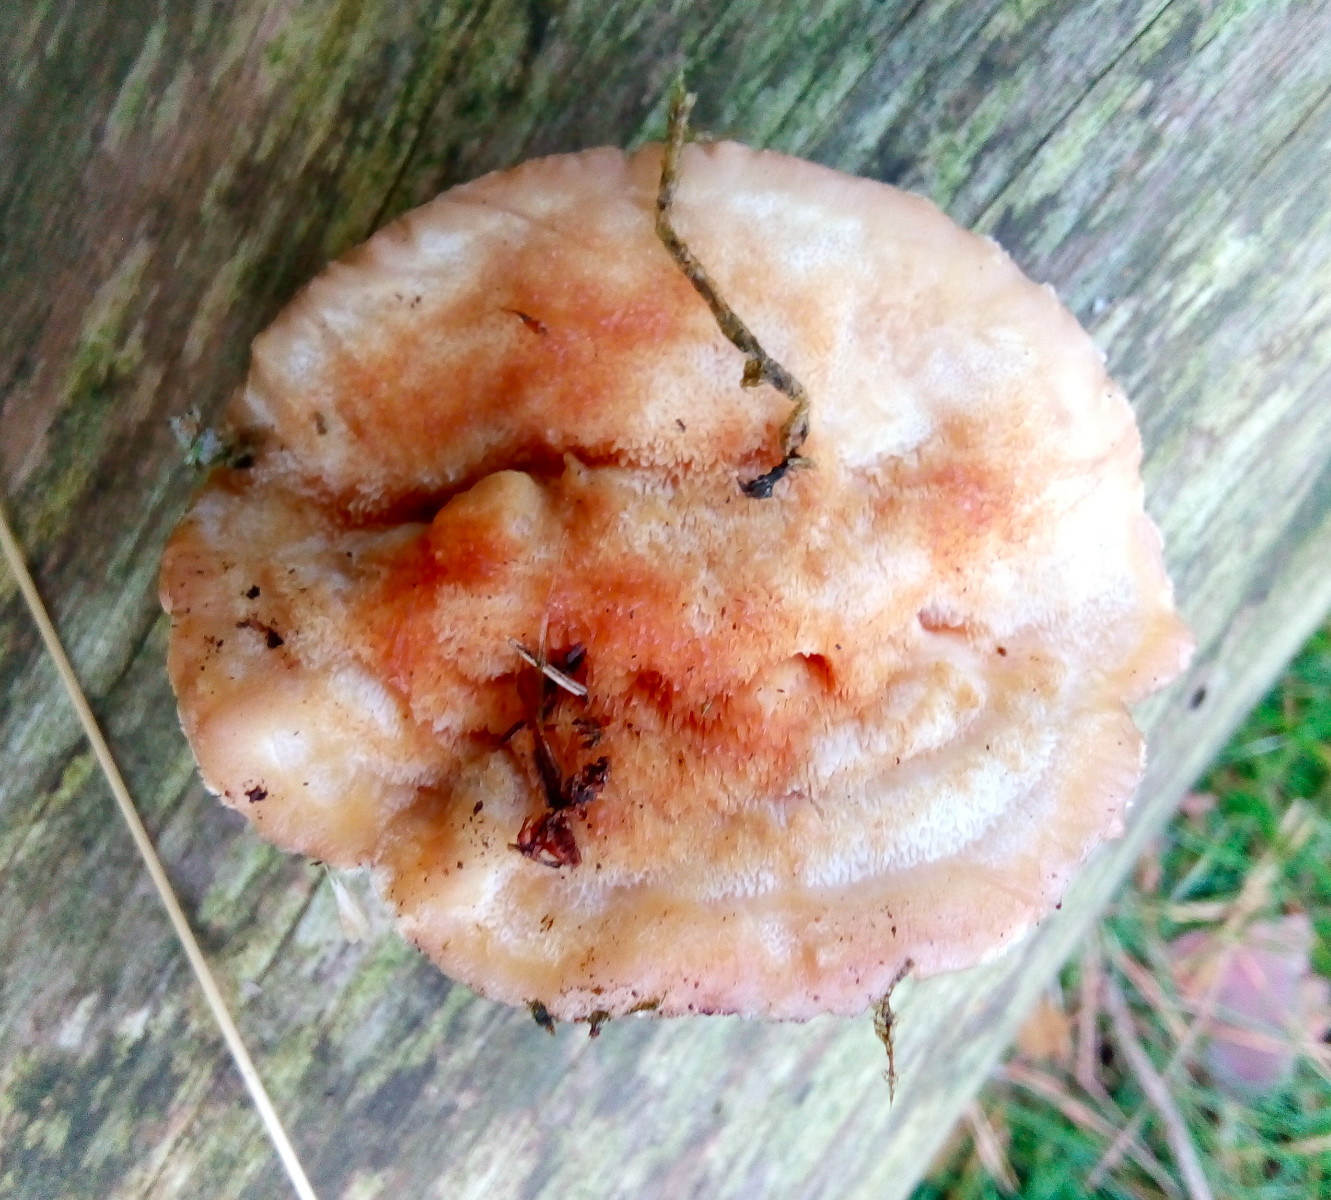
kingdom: Fungi
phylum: Basidiomycota
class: Agaricomycetes
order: Polyporales
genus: Fuscopostia
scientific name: Fuscopostia fragilis
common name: brunende kødporesvamp
